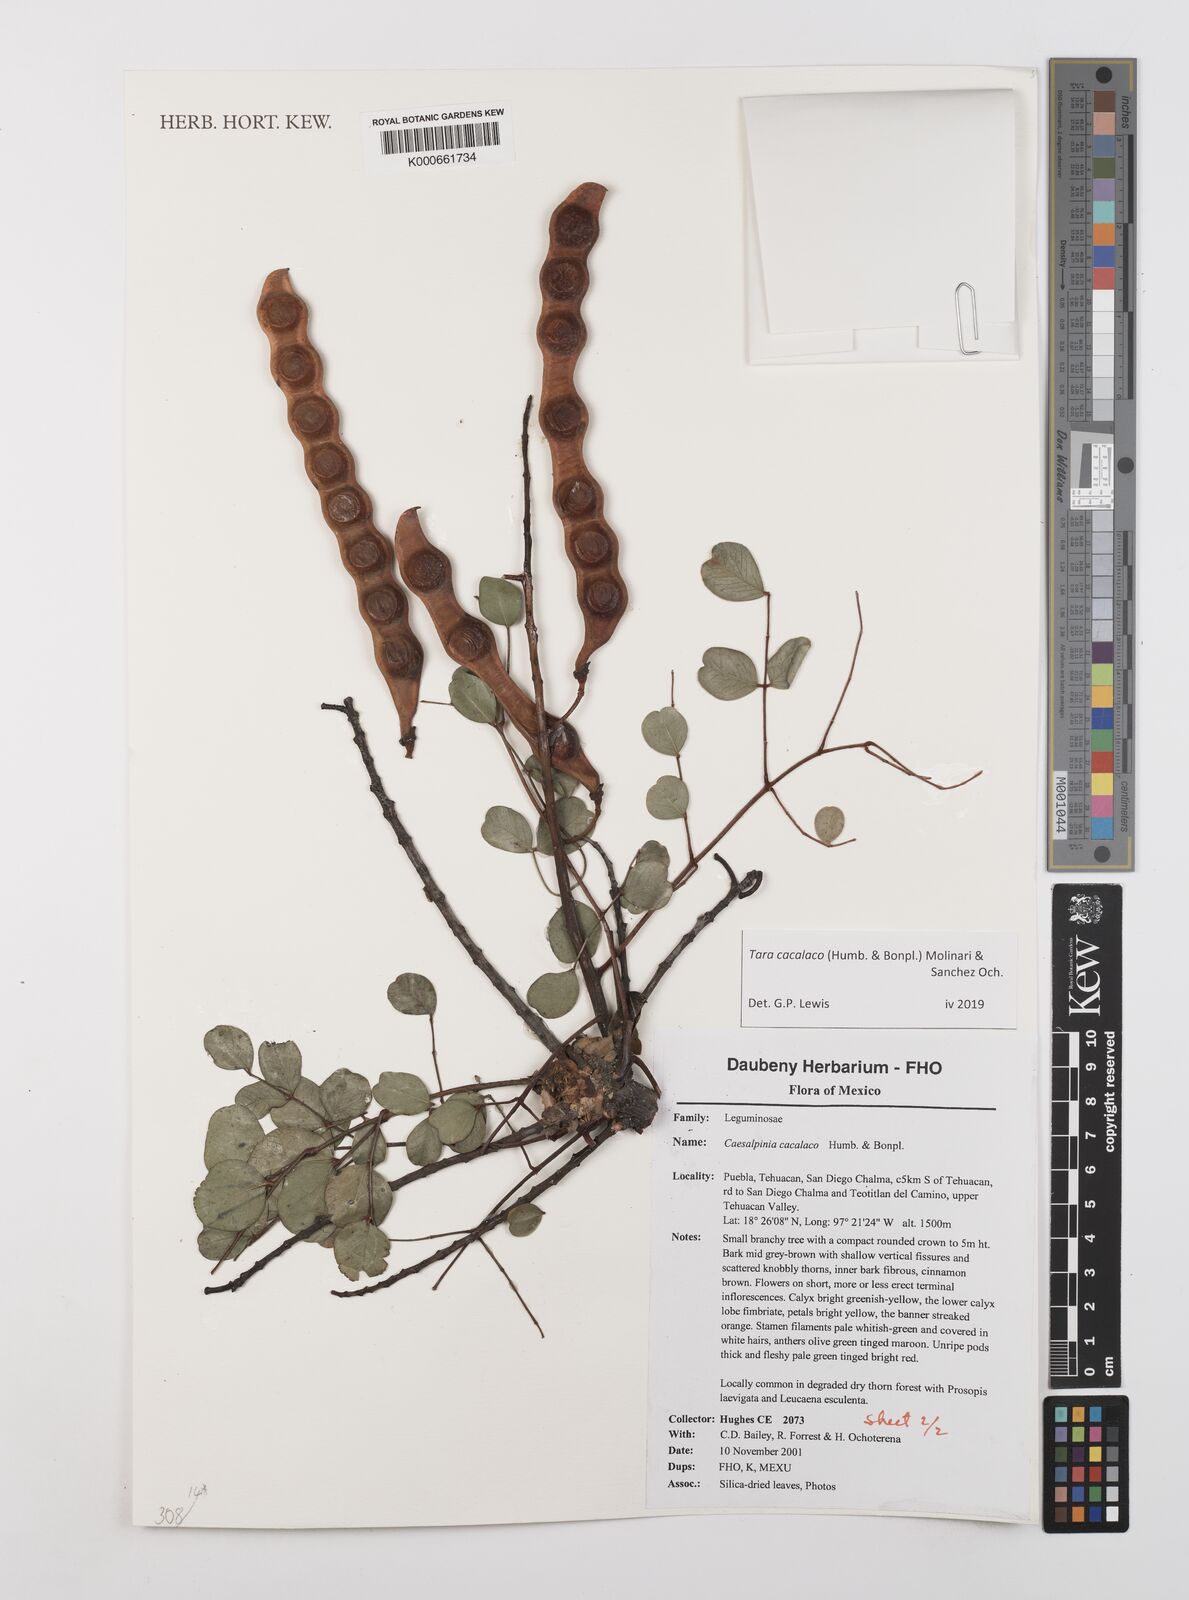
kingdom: Plantae
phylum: Tracheophyta
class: Magnoliopsida
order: Fabales
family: Fabaceae
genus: Tara
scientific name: Tara cacalaco
